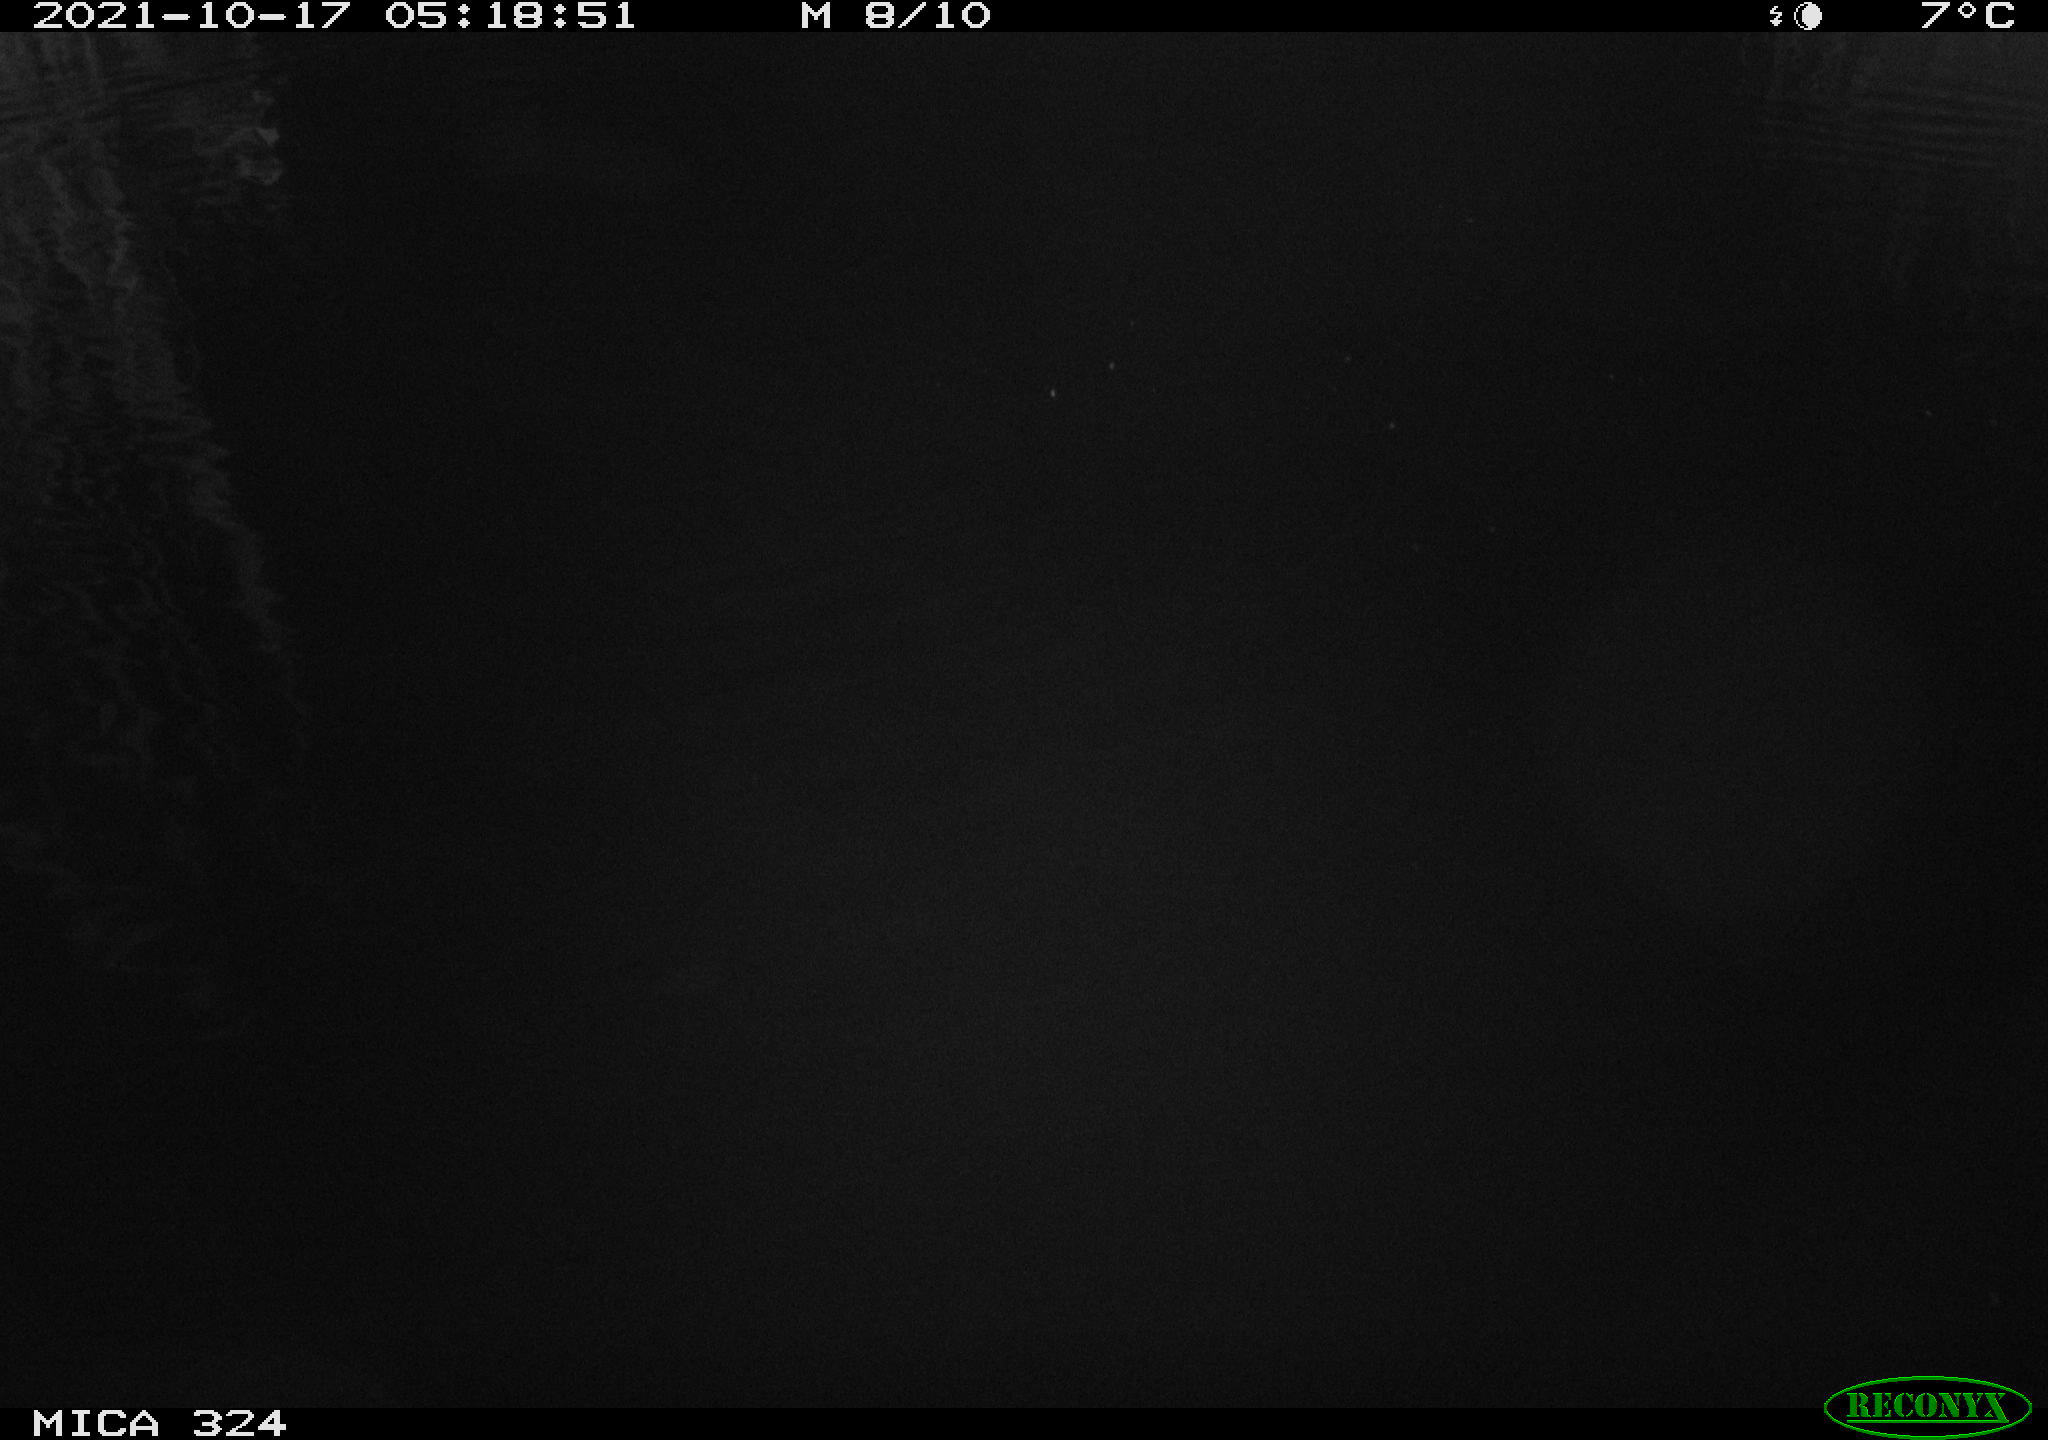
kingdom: Animalia
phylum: Chordata
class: Mammalia
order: Rodentia
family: Cricetidae
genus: Ondatra
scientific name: Ondatra zibethicus
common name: Muskrat
